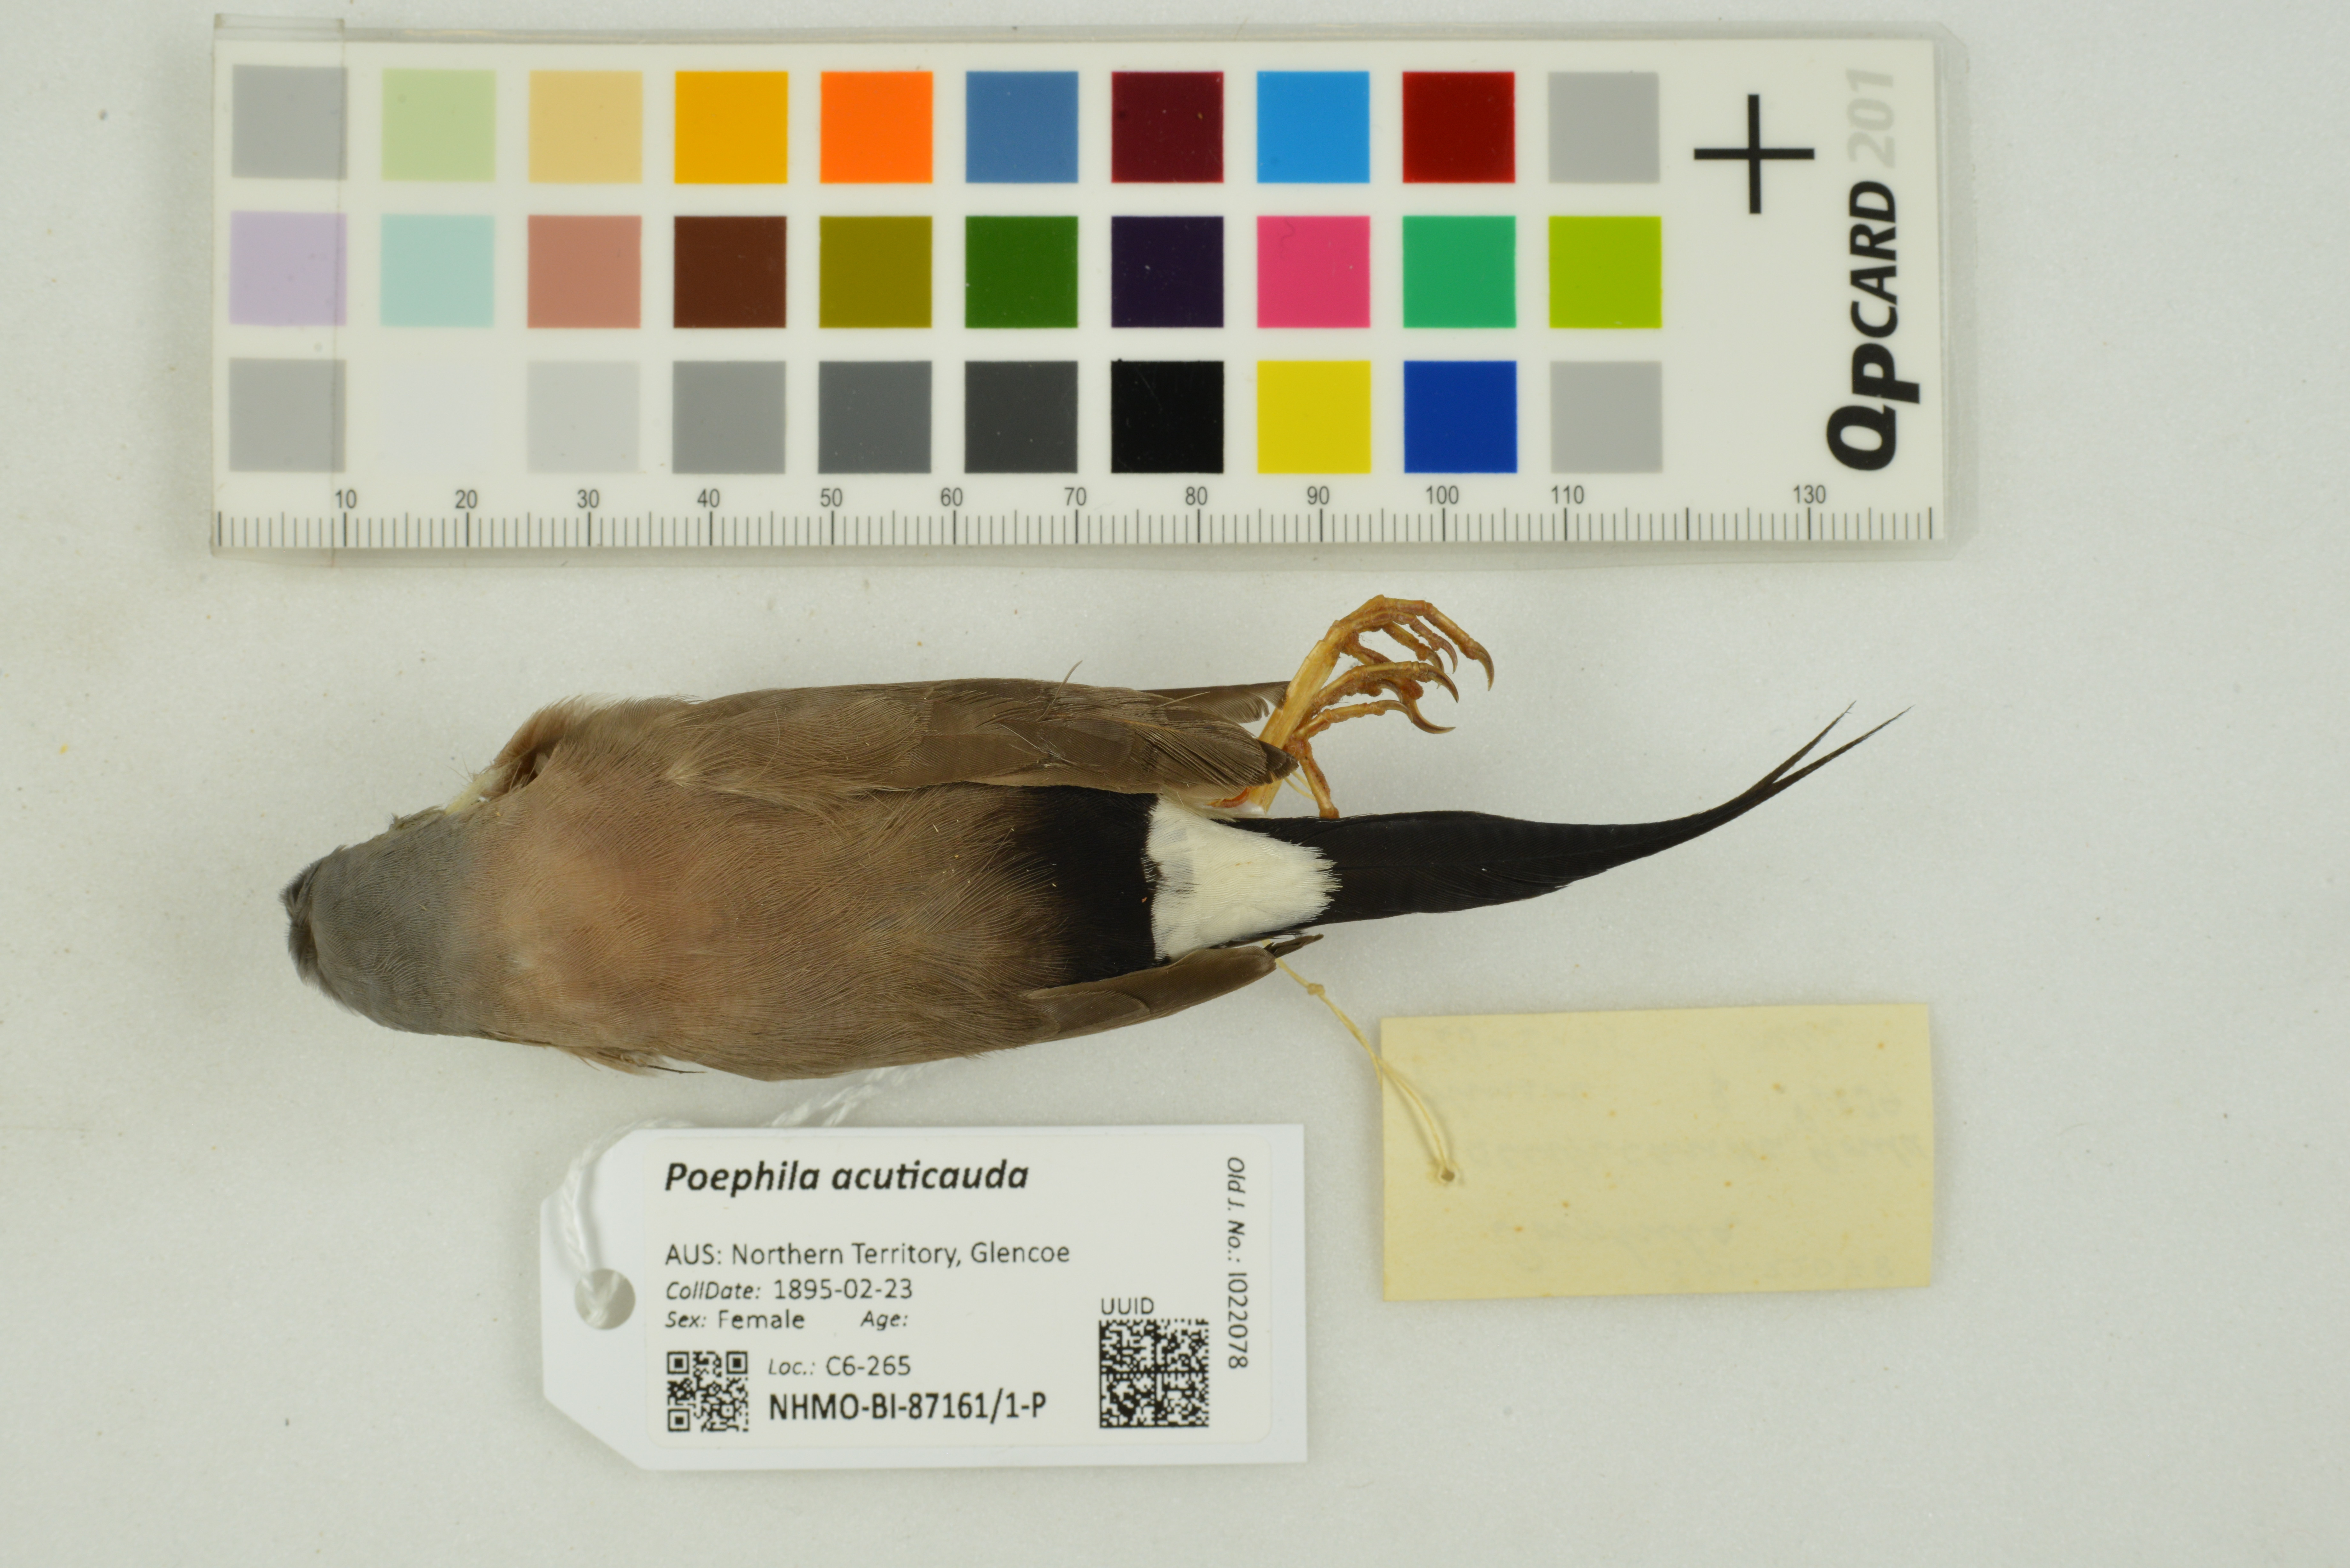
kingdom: Animalia
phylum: Chordata
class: Aves
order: Passeriformes
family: Estrildidae
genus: Poephila
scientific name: Poephila acuticauda
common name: Long-tailed finch
